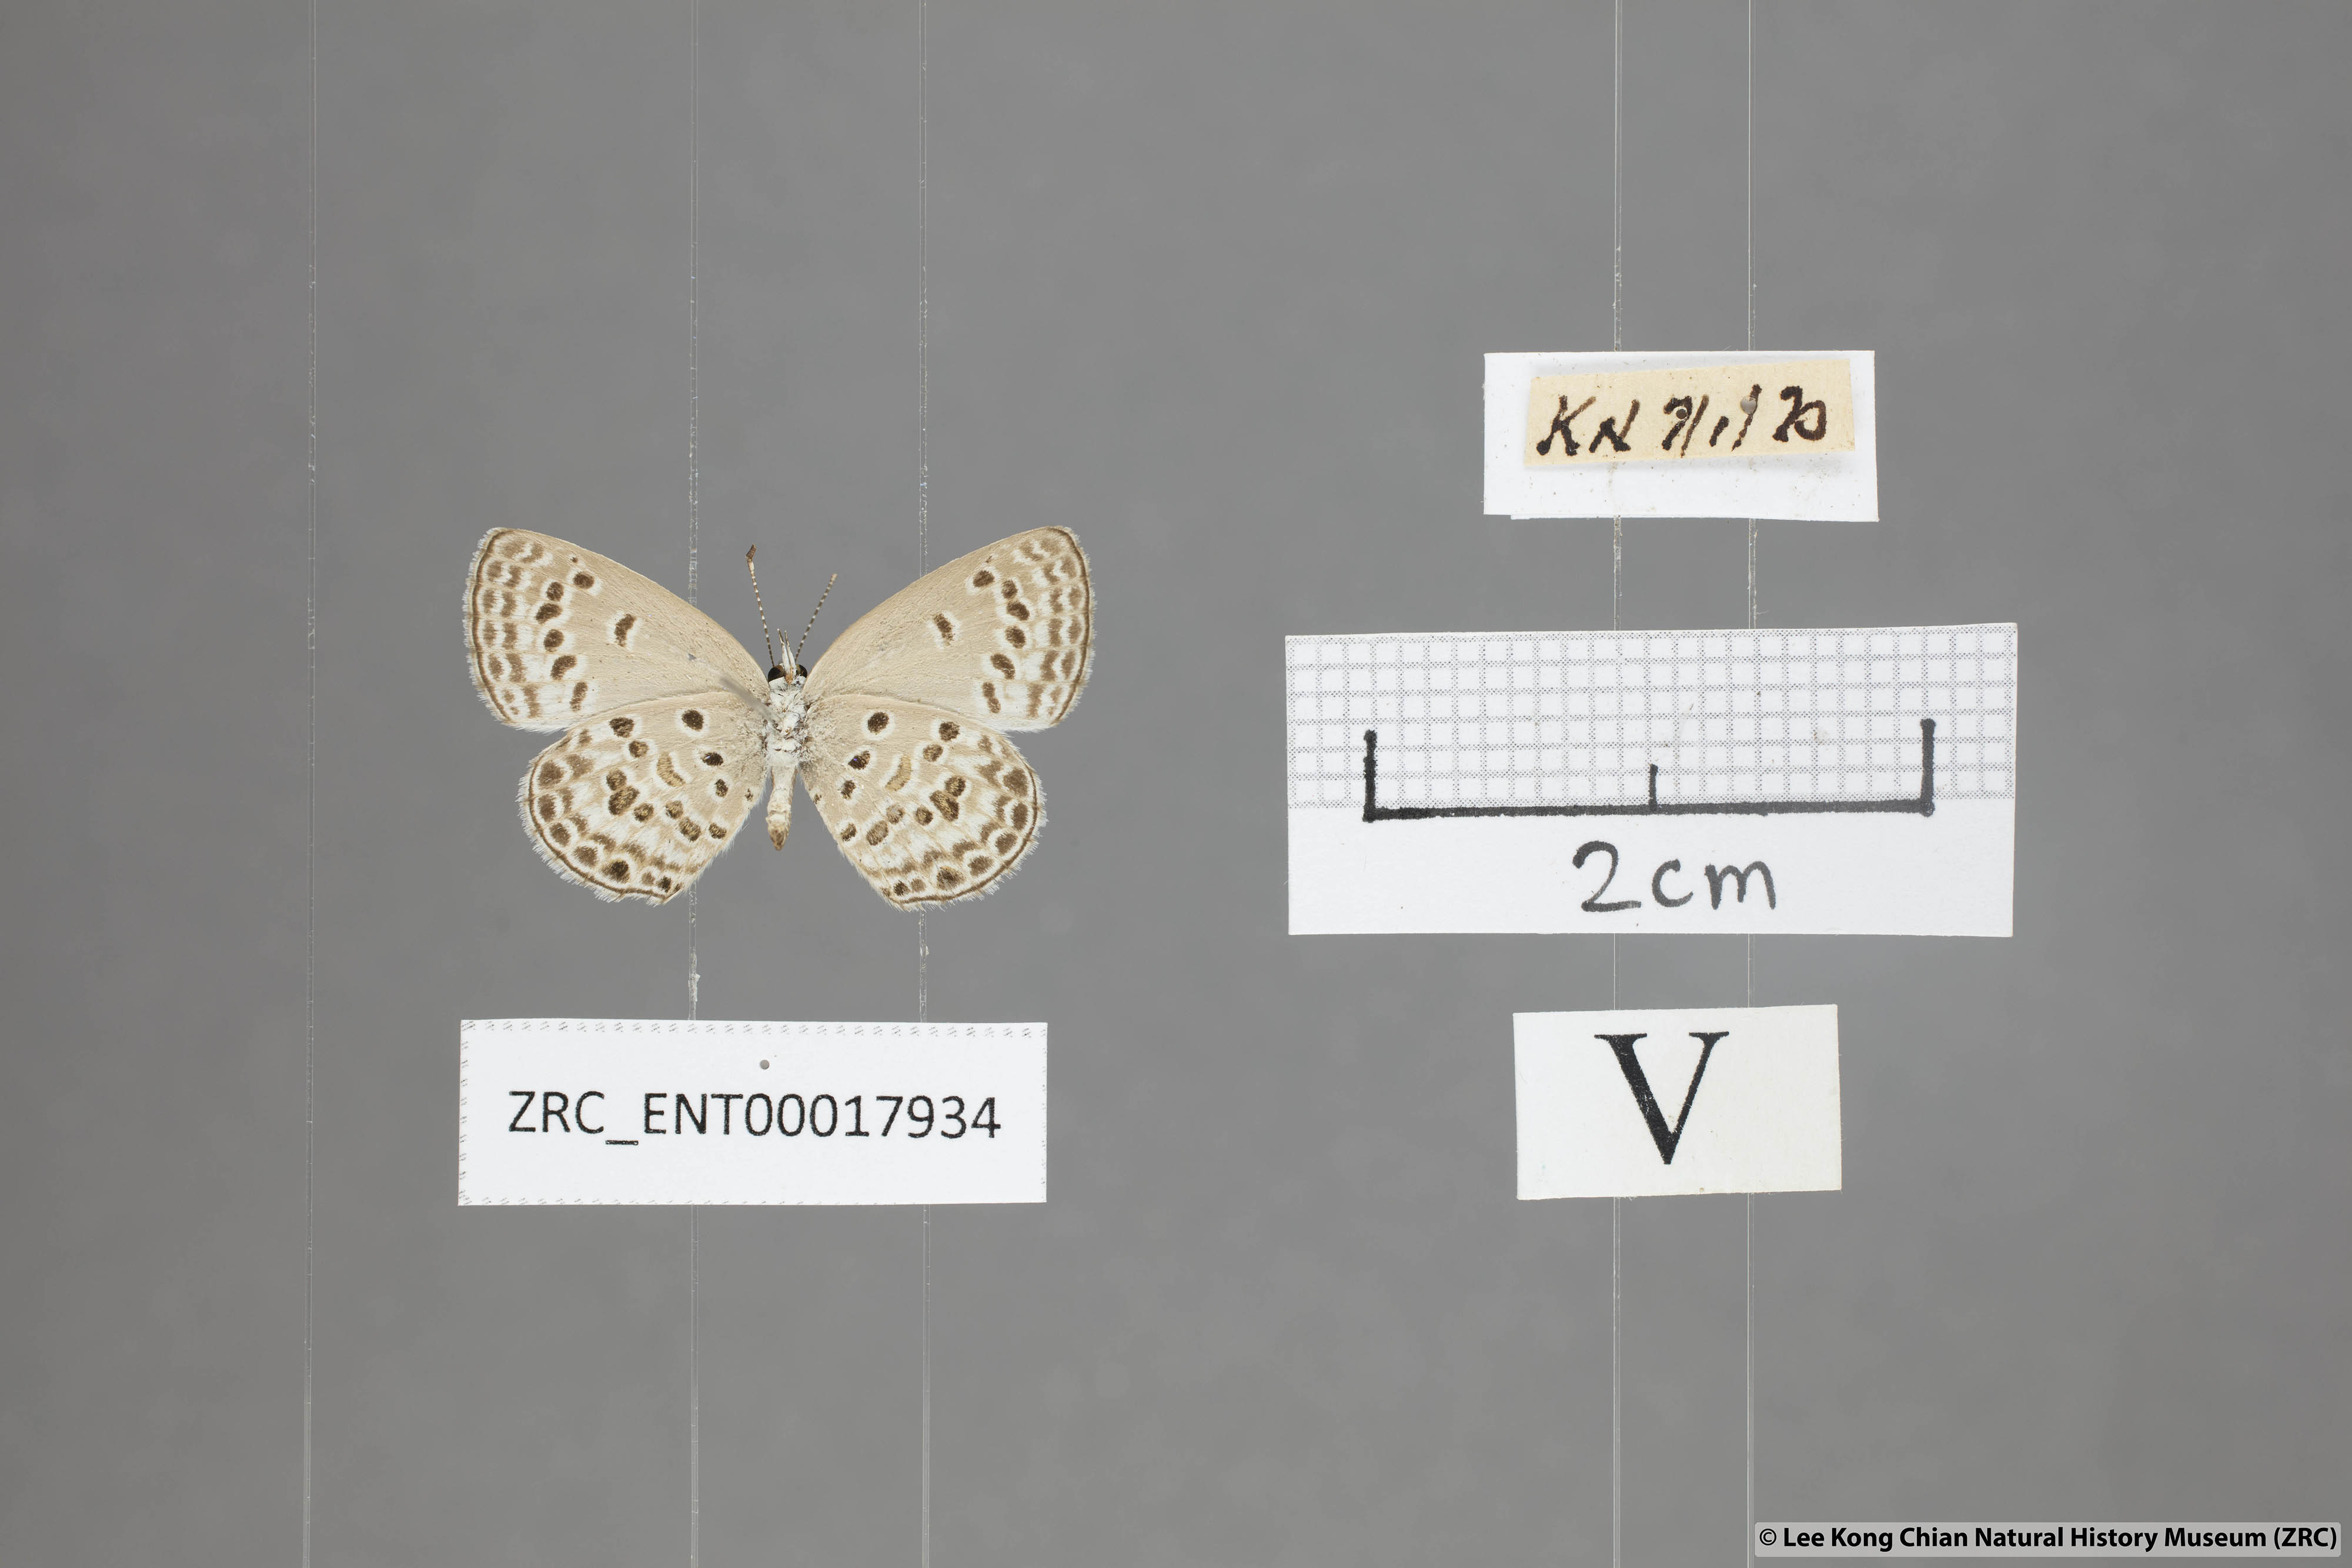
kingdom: Animalia
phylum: Arthropoda
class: Insecta
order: Lepidoptera
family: Lycaenidae
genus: Chilades
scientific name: Chilades laius
